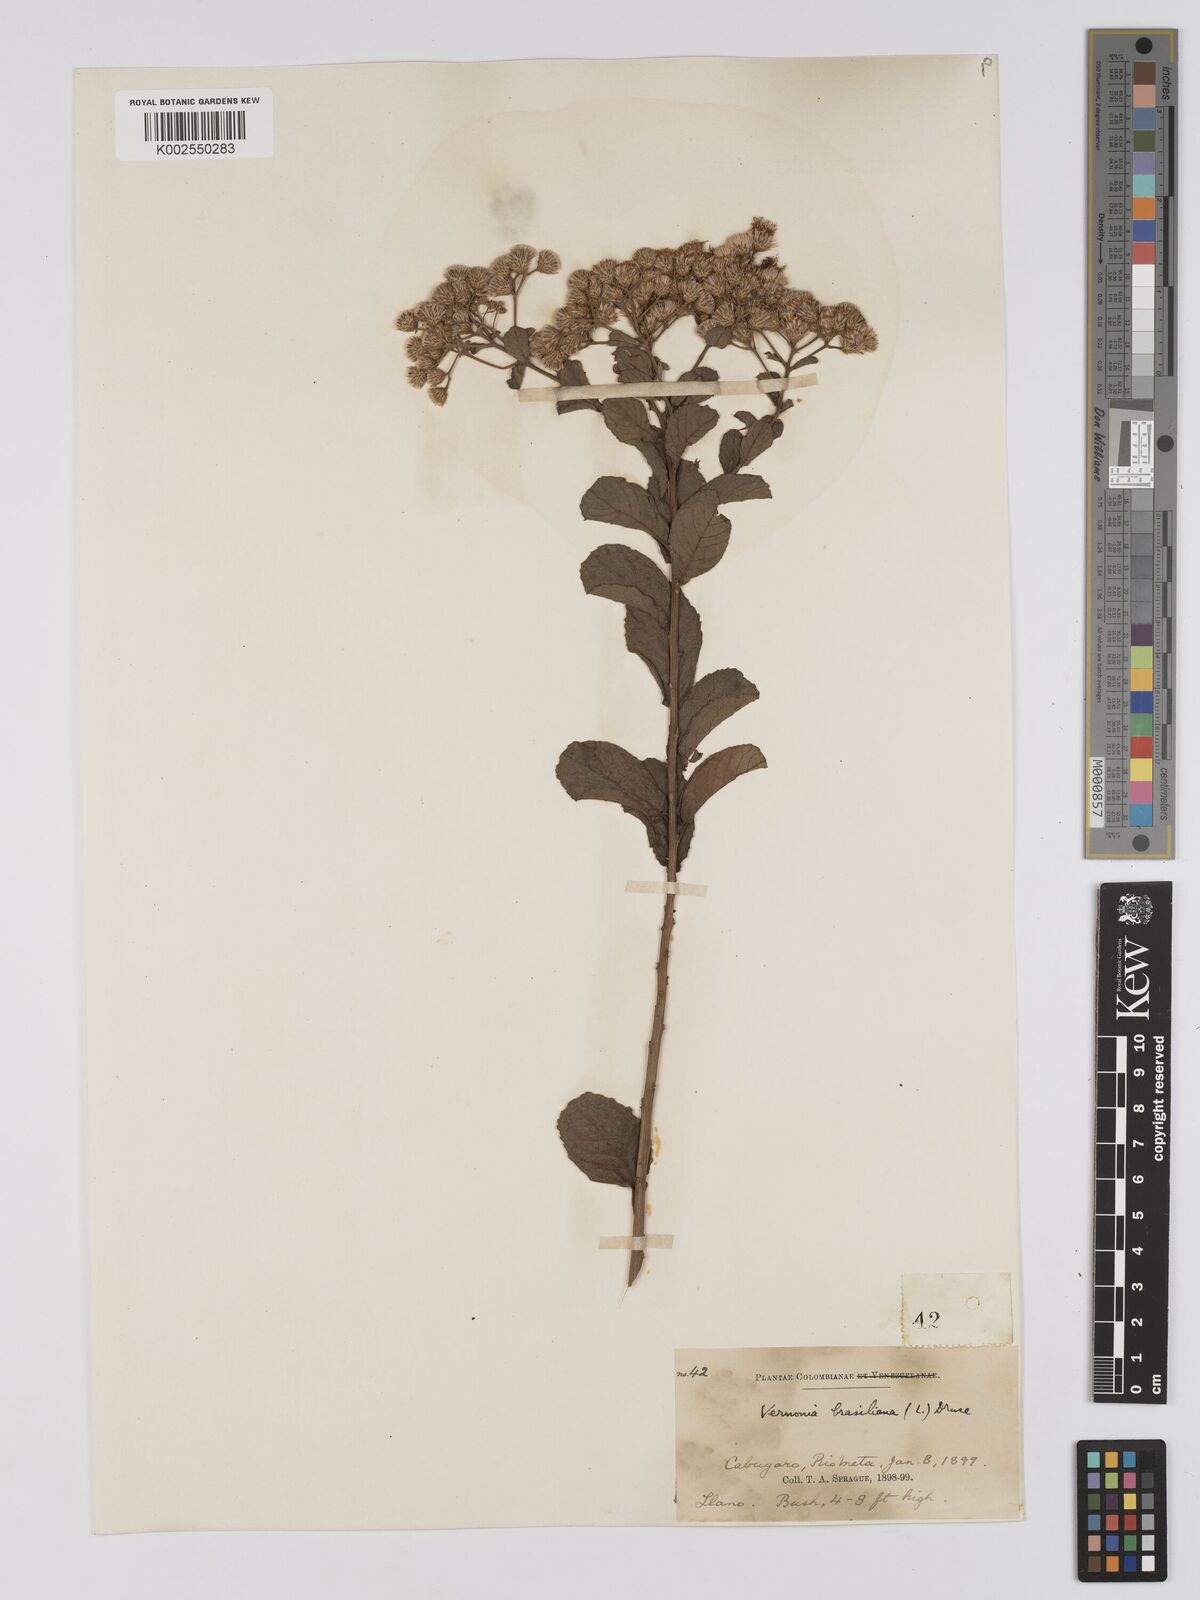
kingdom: Plantae
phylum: Tracheophyta
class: Magnoliopsida
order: Asterales
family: Asteraceae
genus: Vernonanthura
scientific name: Vernonanthura brasiliana
